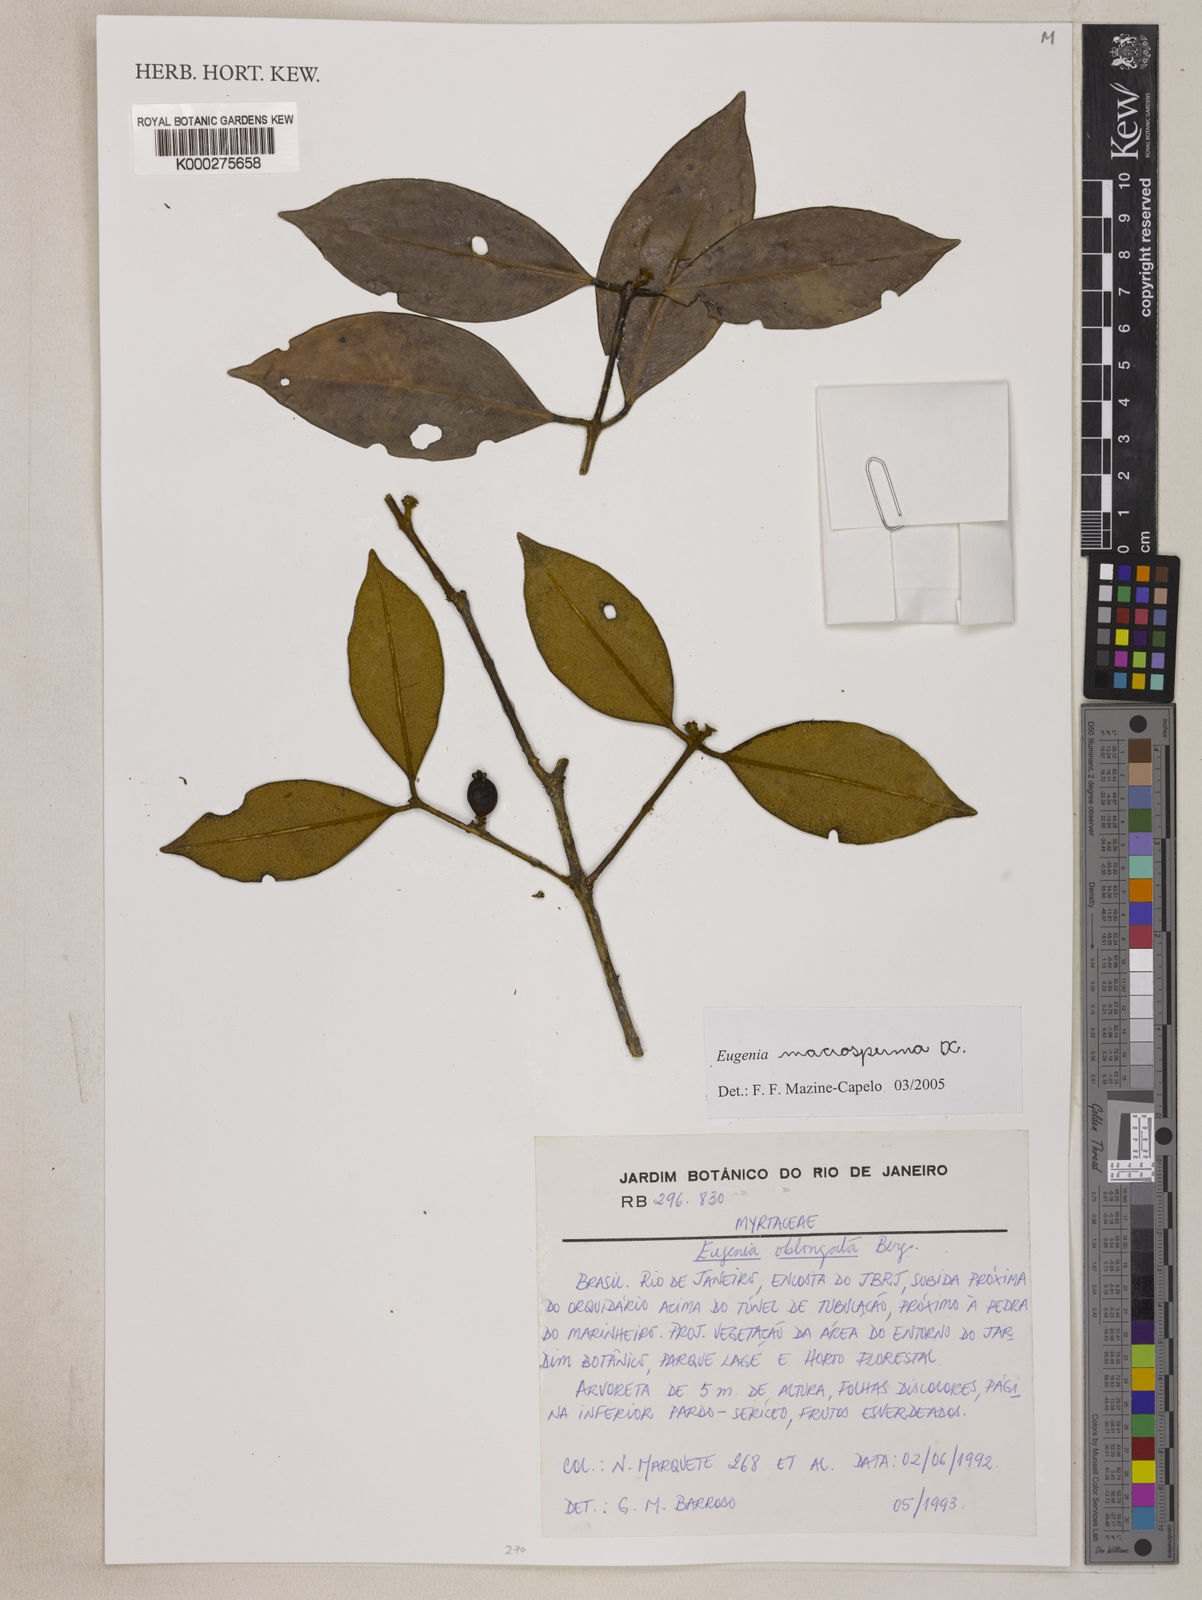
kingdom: Plantae
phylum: Tracheophyta
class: Magnoliopsida
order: Myrtales
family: Myrtaceae
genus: Eugenia
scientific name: Eugenia macrosperma
